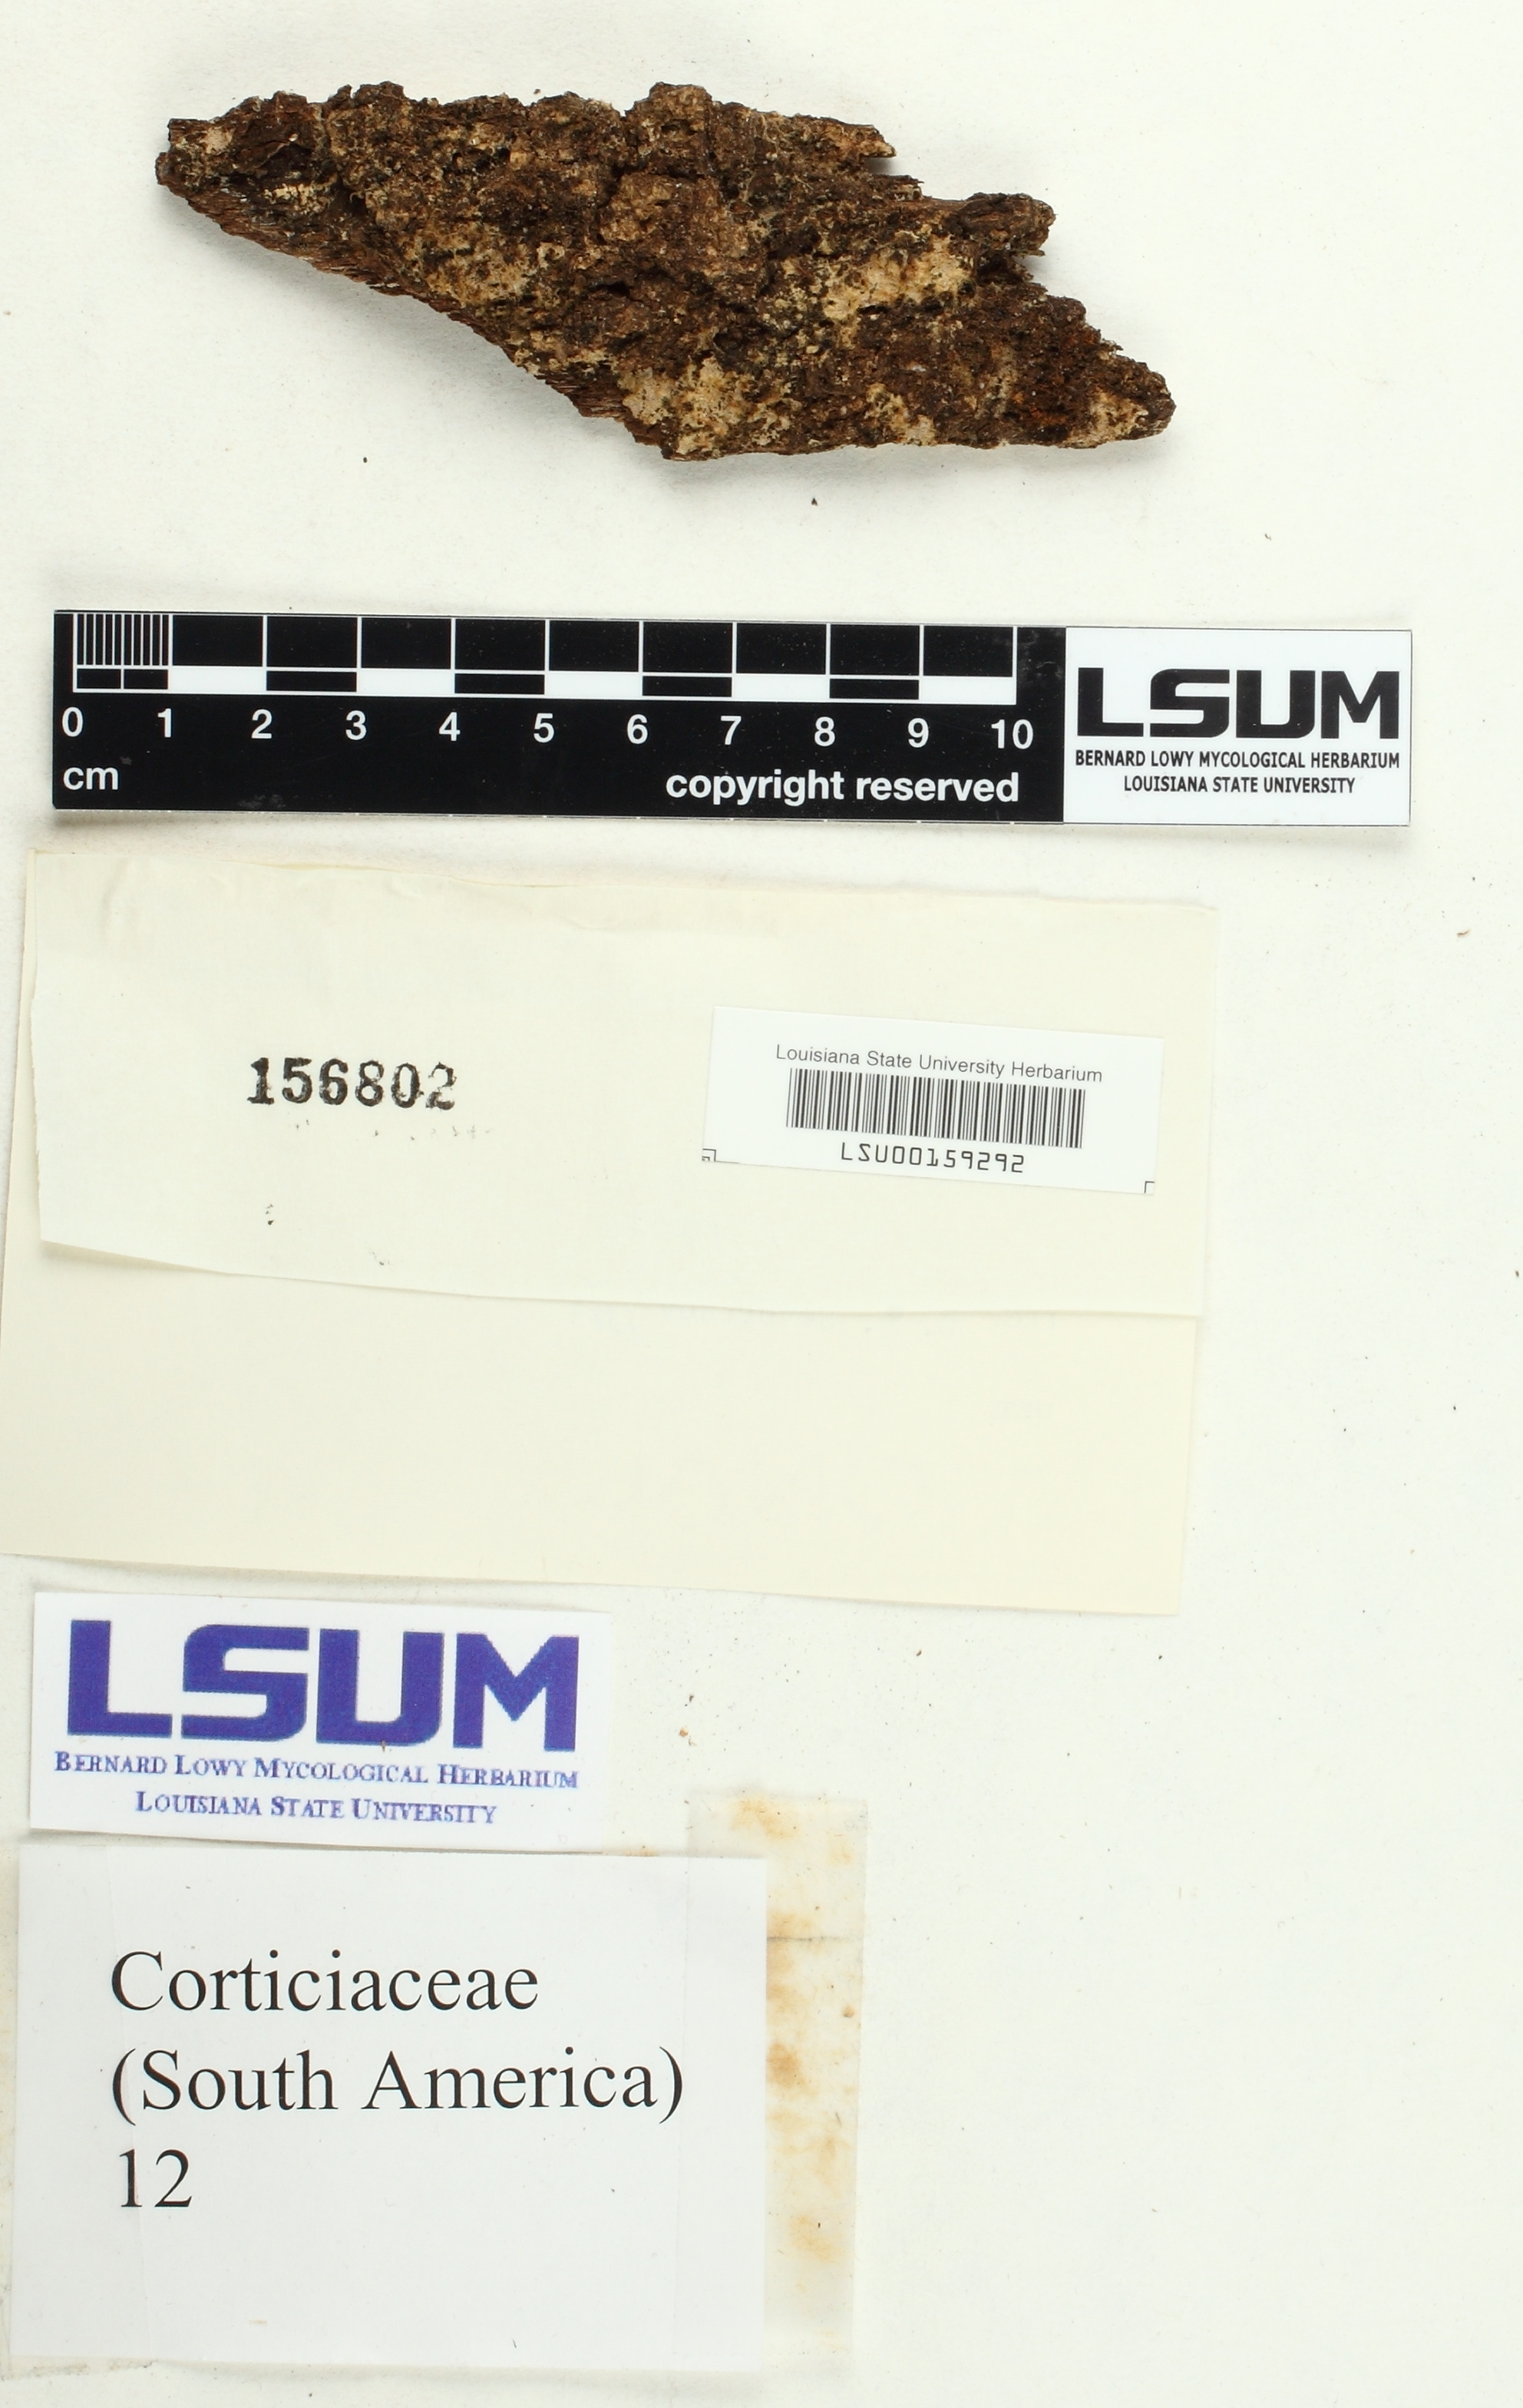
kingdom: Fungi
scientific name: Fungi
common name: Fungi
